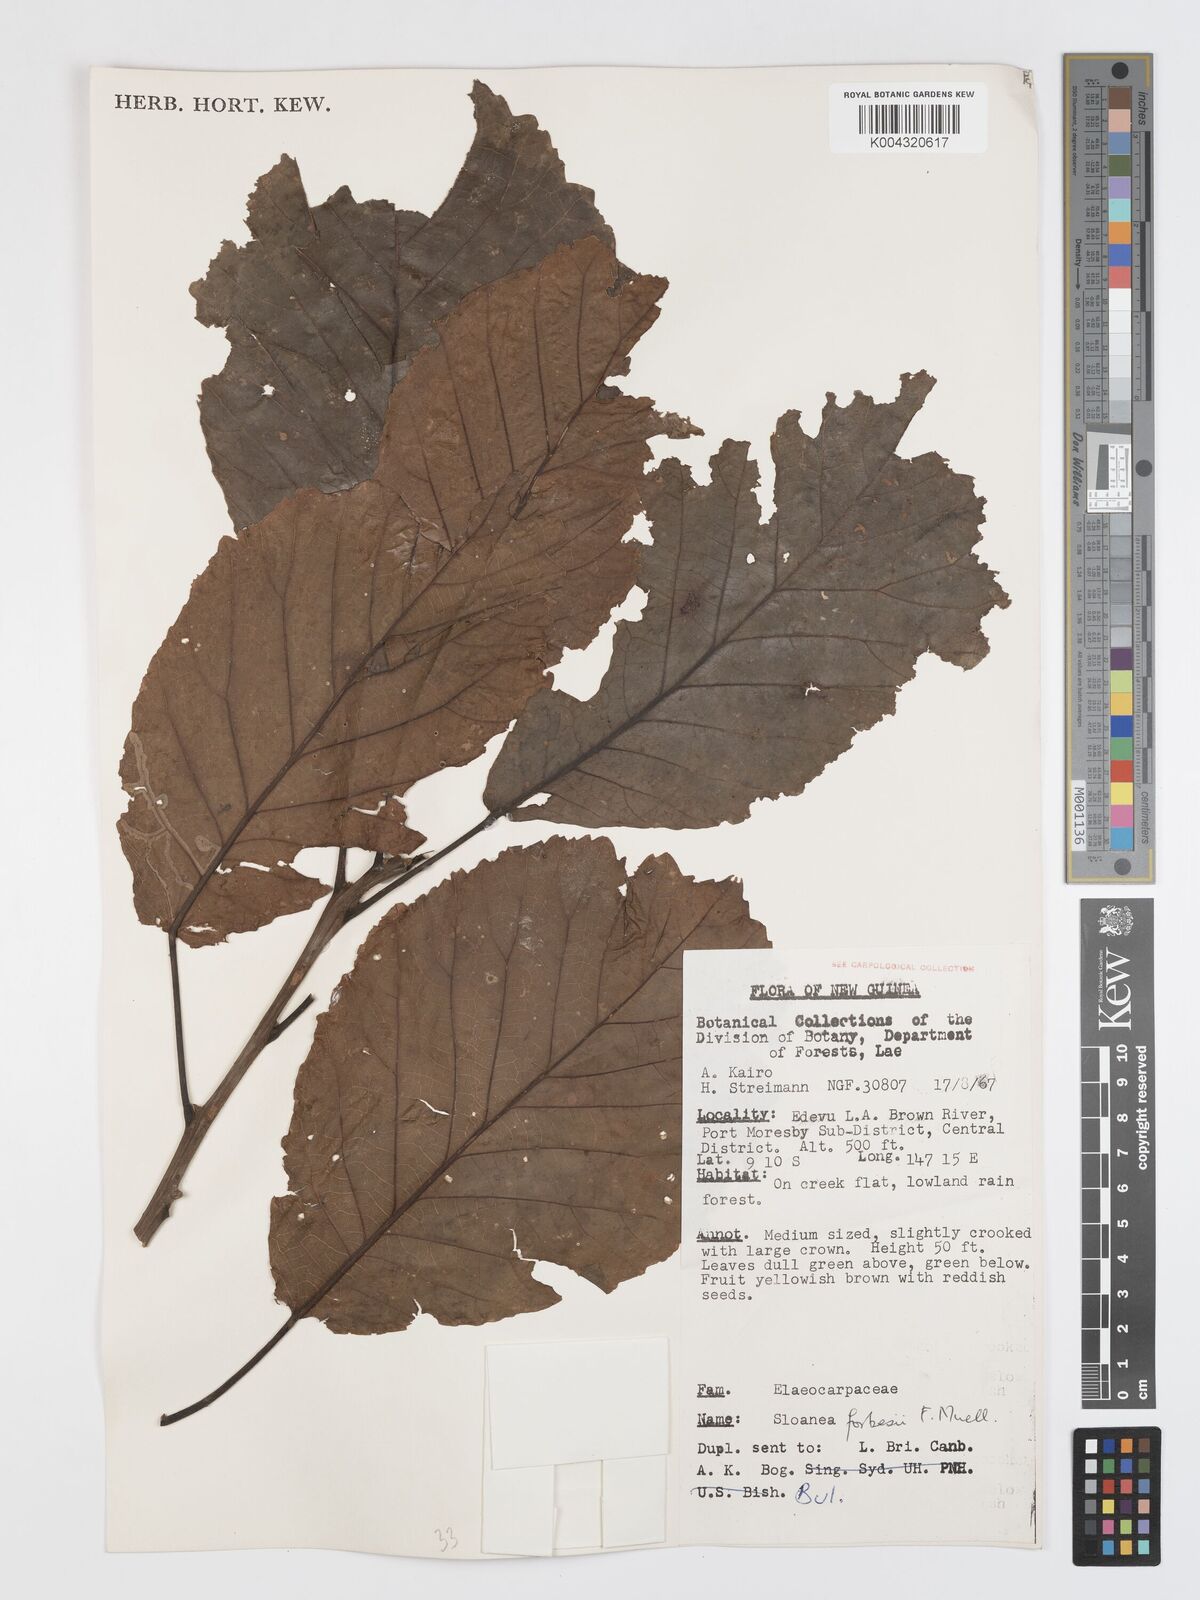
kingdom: Plantae
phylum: Tracheophyta
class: Magnoliopsida
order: Oxalidales
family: Elaeocarpaceae
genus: Sloanea
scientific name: Sloanea forbesii
